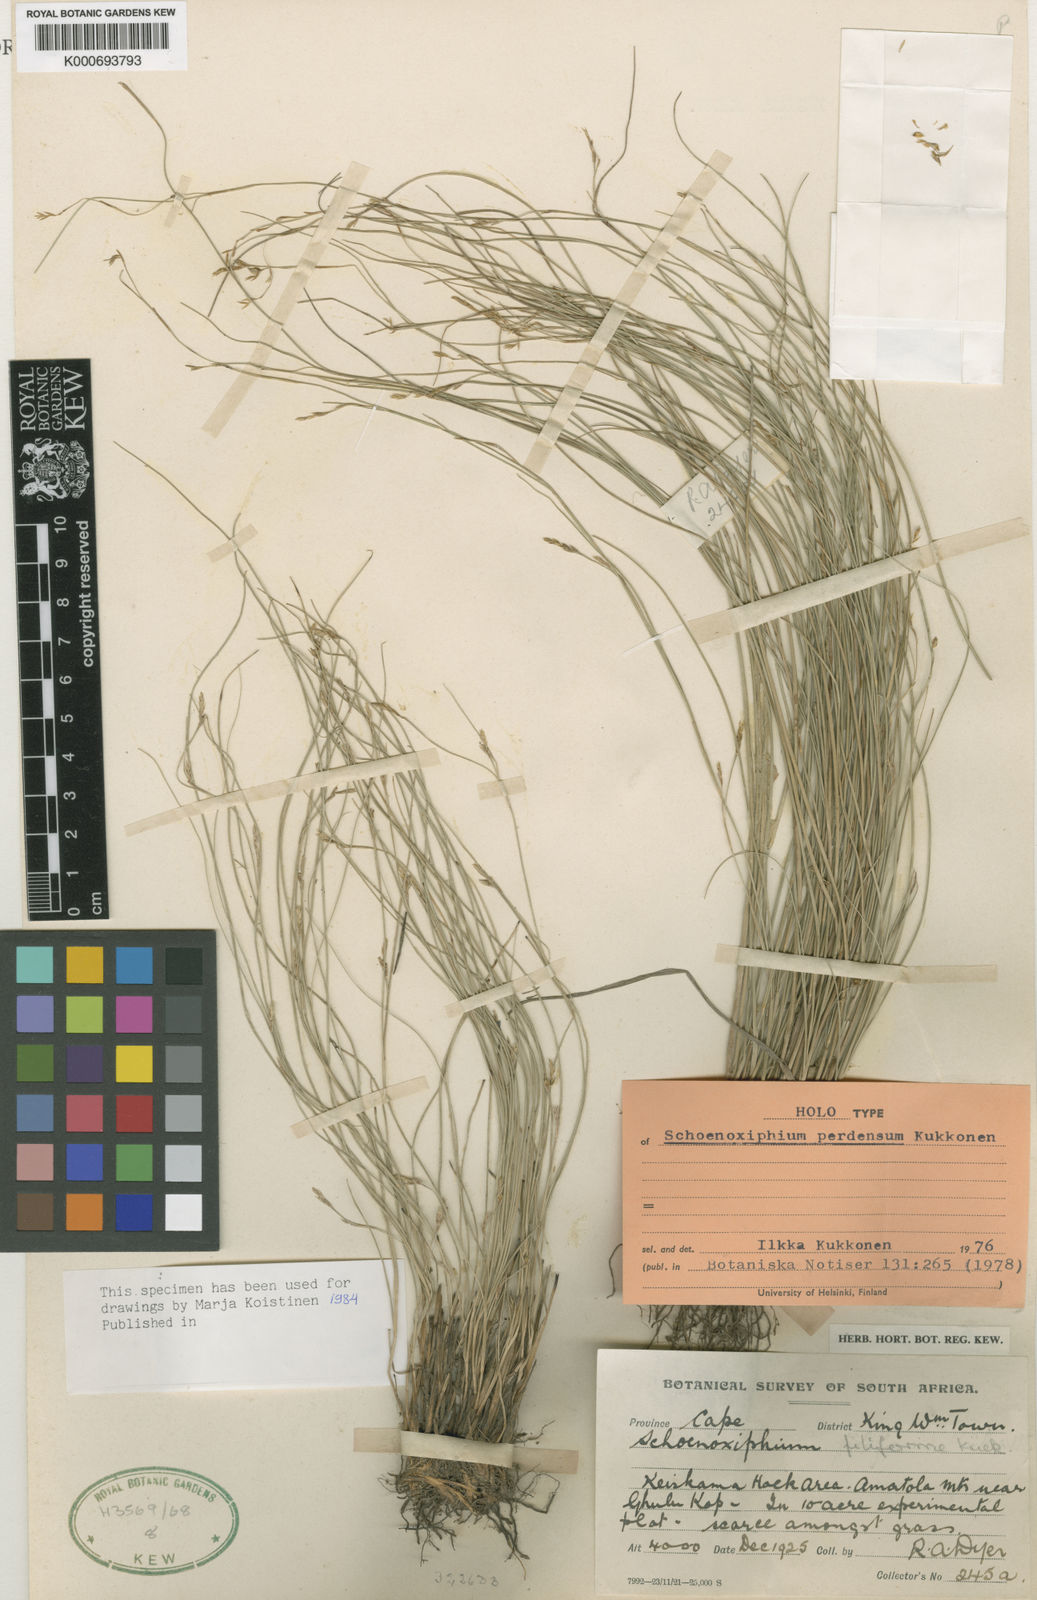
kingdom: Plantae
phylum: Tracheophyta
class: Liliopsida
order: Poales
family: Cyperaceae
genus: Carex
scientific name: Carex perdensa
